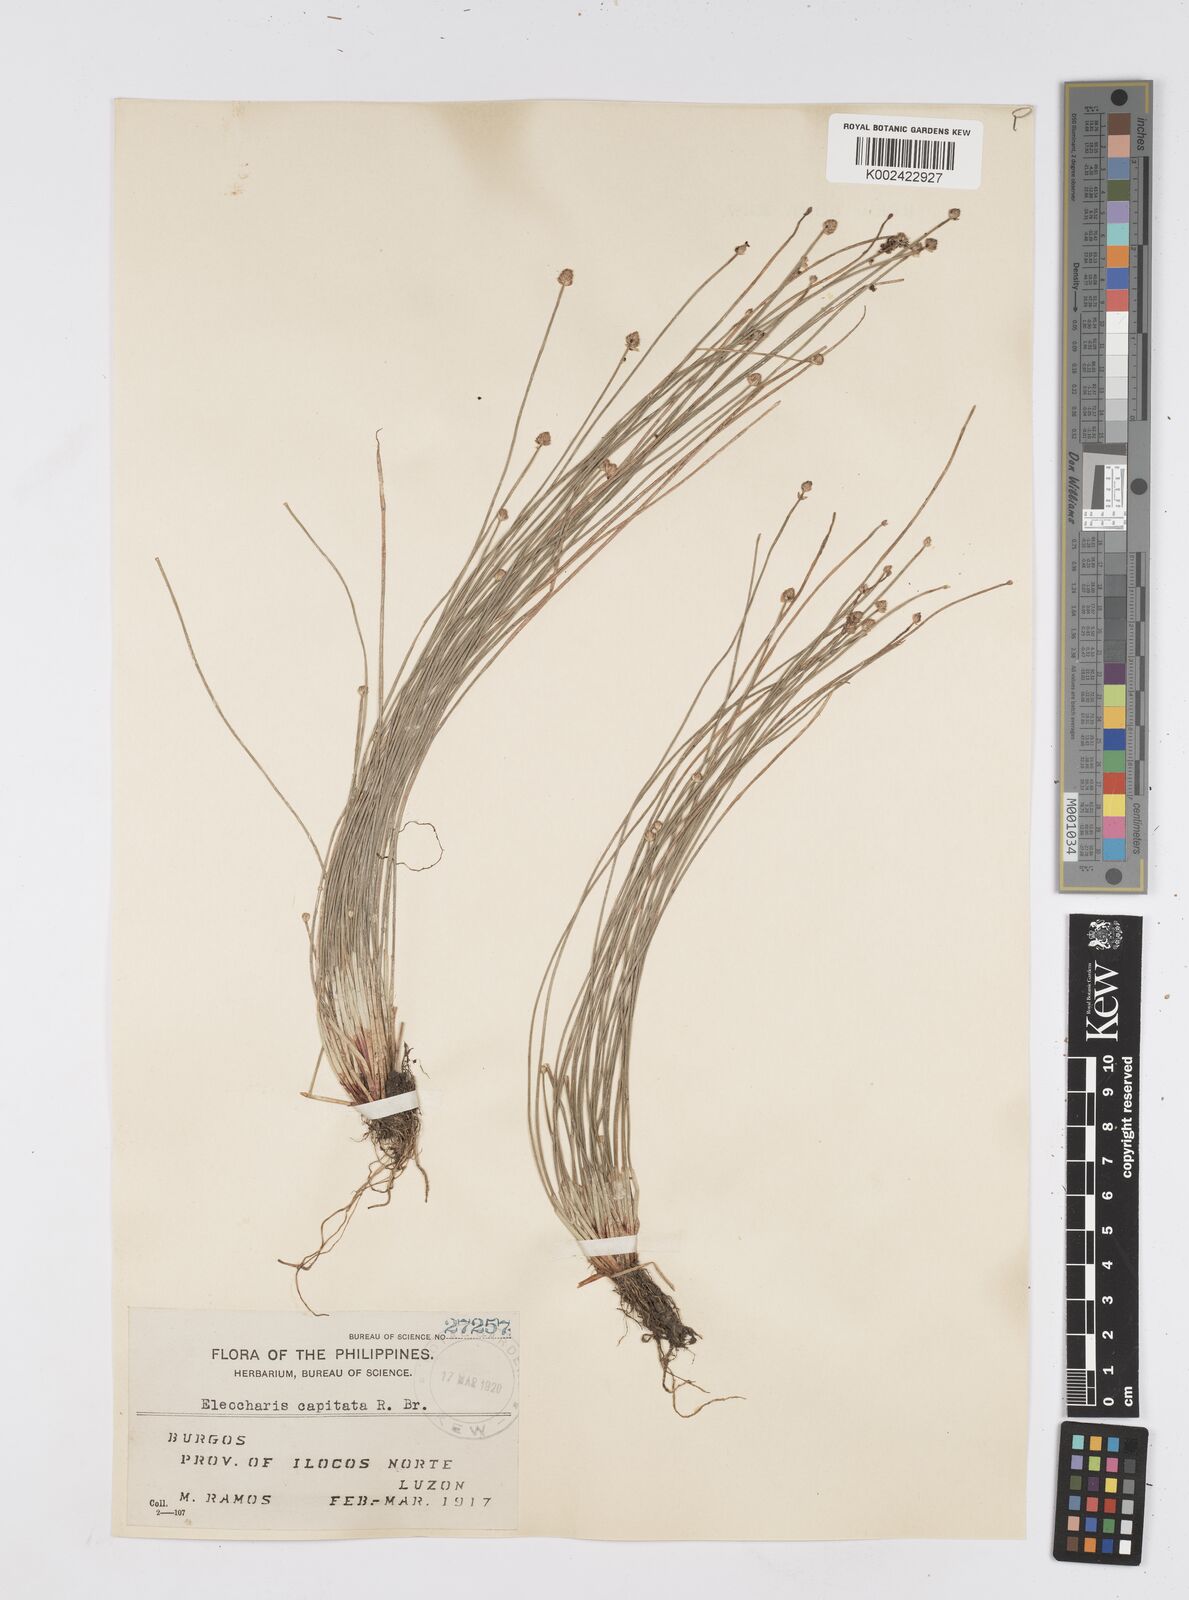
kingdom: Plantae
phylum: Tracheophyta
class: Liliopsida
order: Poales
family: Cyperaceae
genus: Eleocharis
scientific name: Eleocharis geniculata
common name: Canada spikesedge
